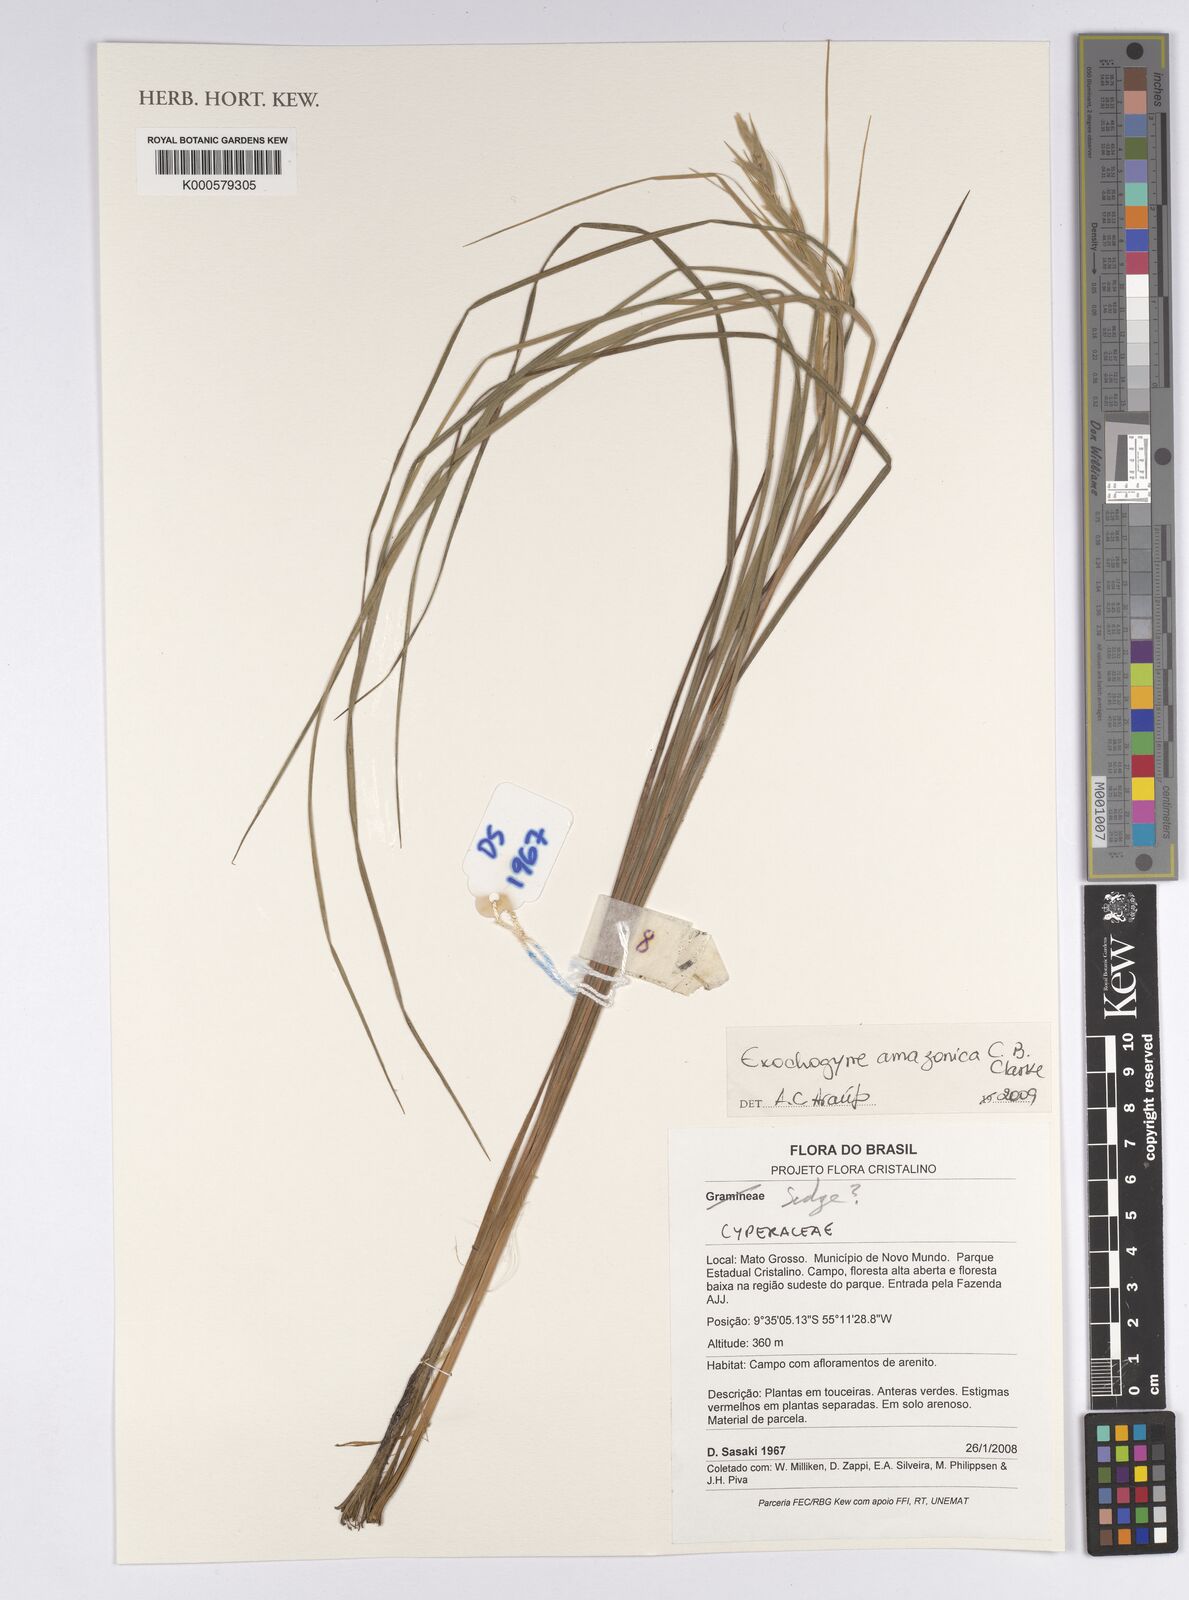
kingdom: Plantae
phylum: Tracheophyta
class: Liliopsida
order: Poales
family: Cyperaceae
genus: Exochogyne
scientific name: Exochogyne amazonica
